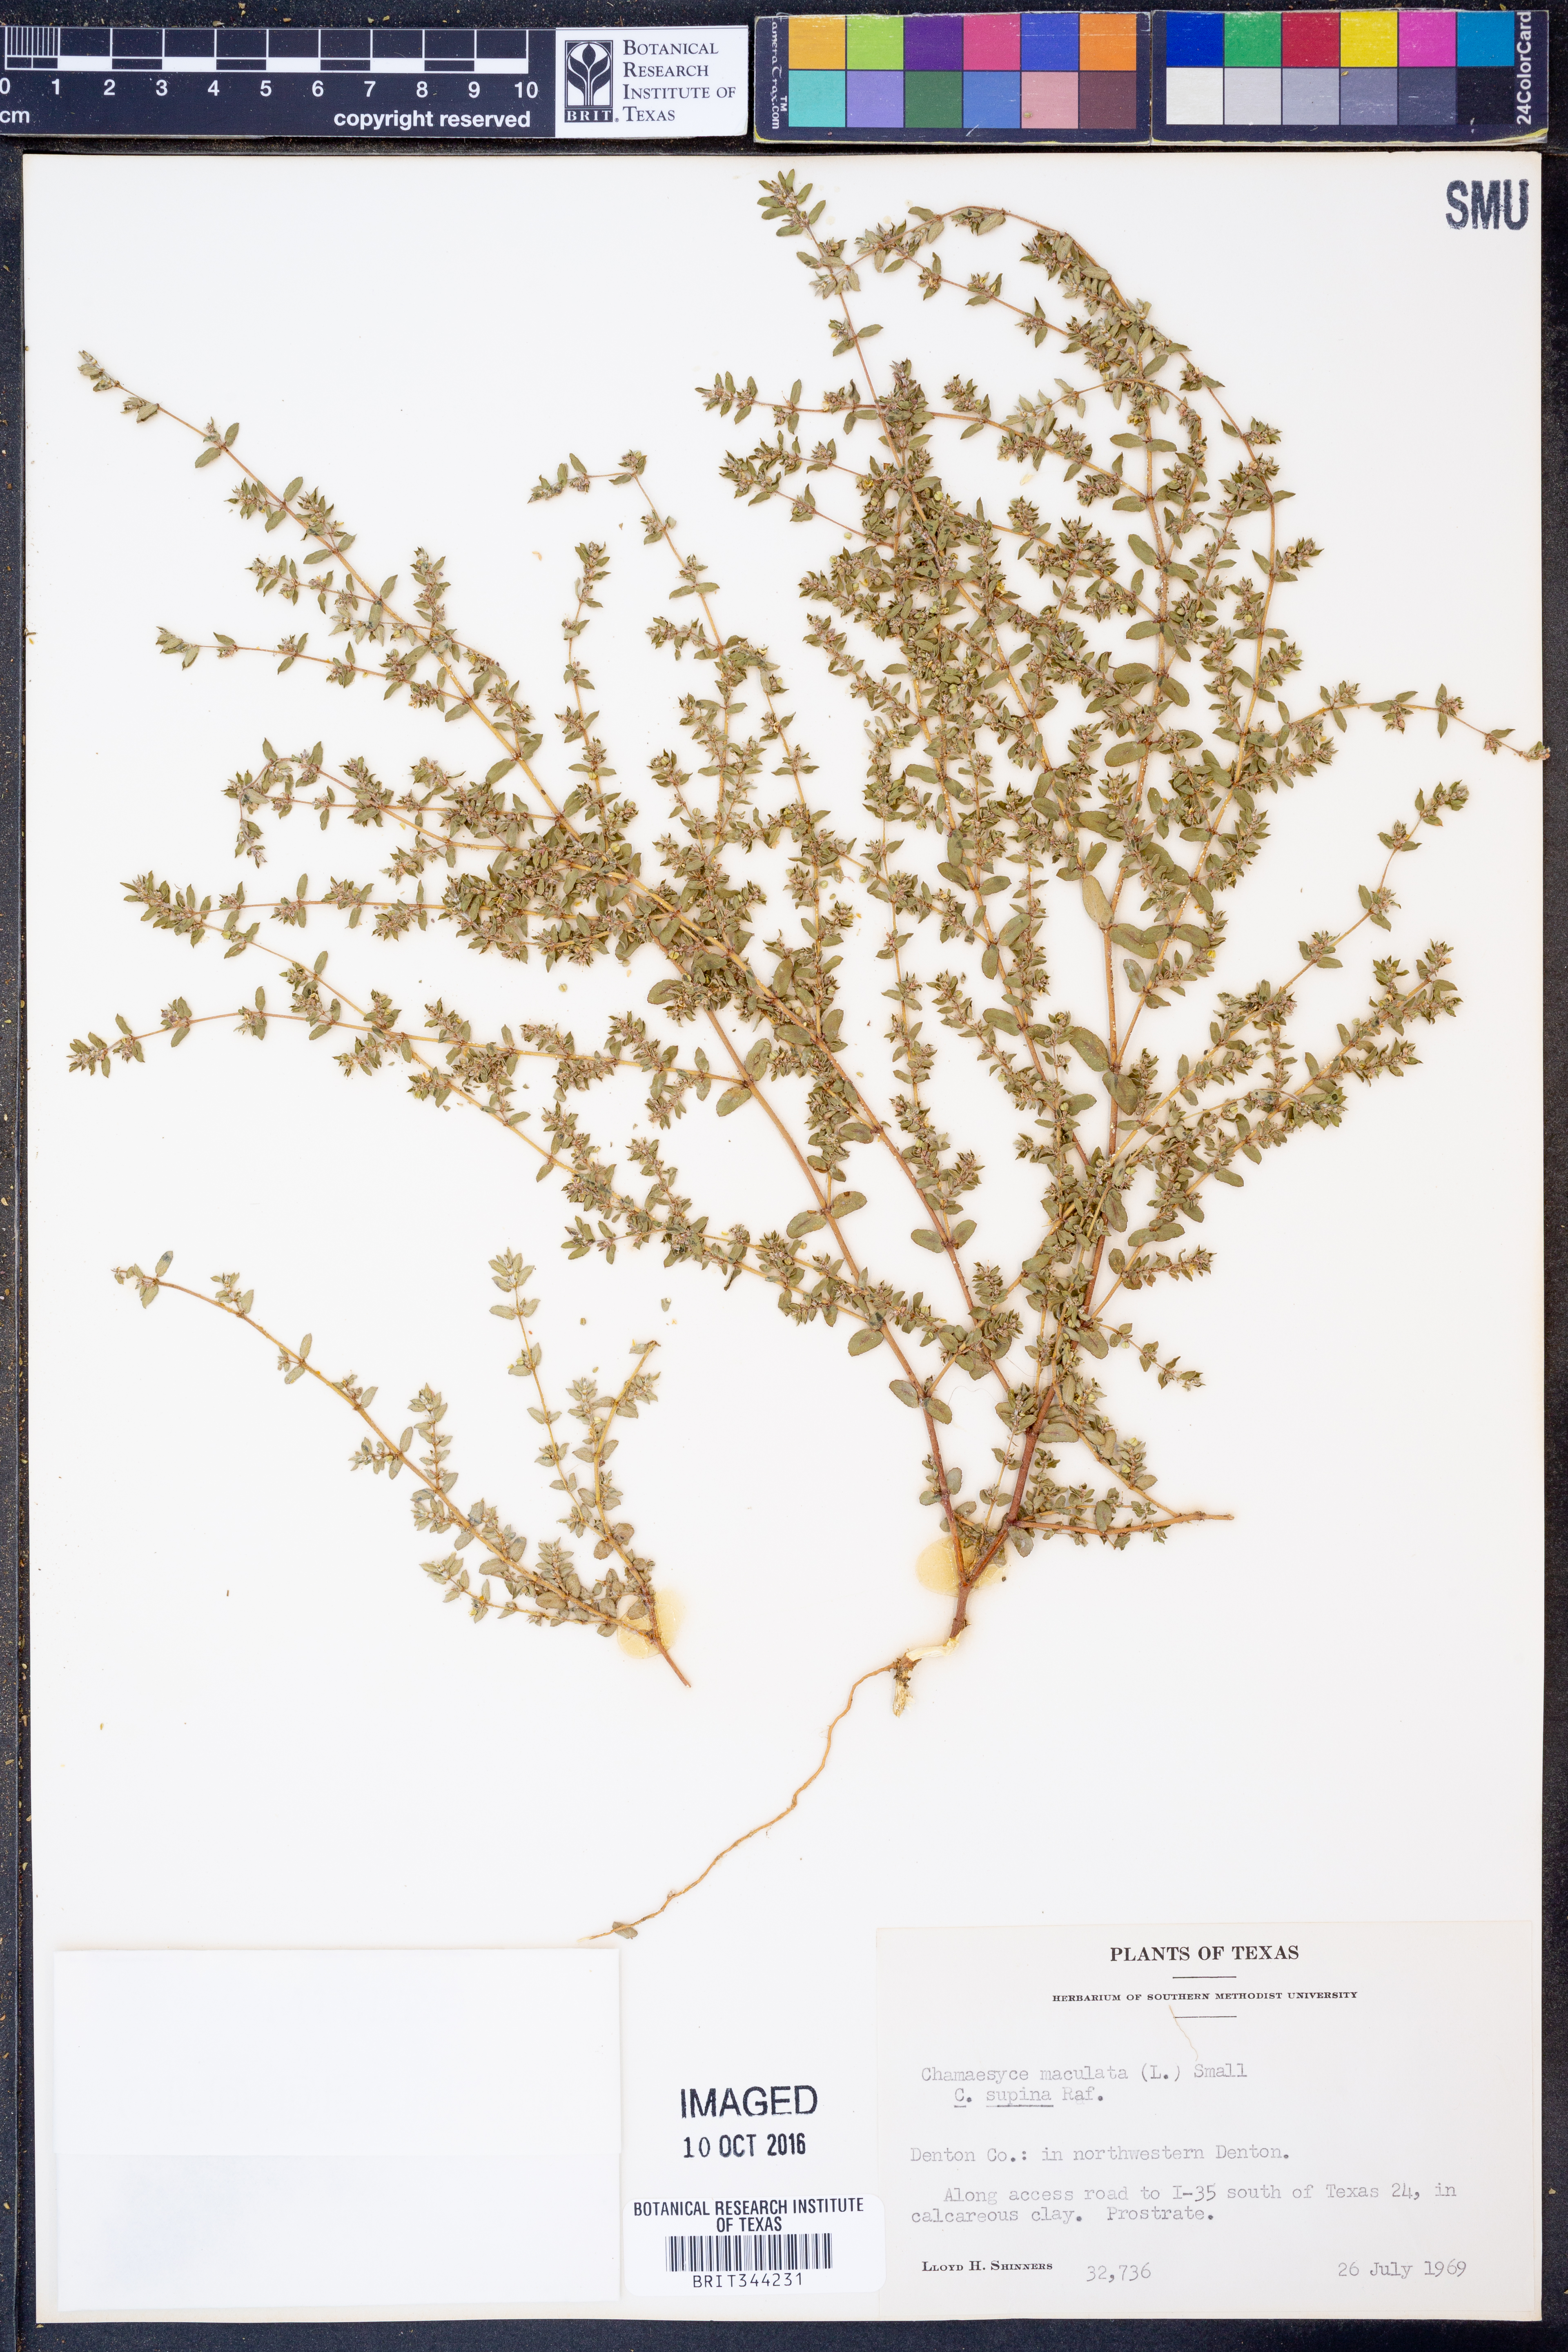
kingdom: Plantae
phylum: Tracheophyta
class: Magnoliopsida
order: Malpighiales
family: Euphorbiaceae
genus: Euphorbia
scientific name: Euphorbia maculata
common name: Spotted spurge
